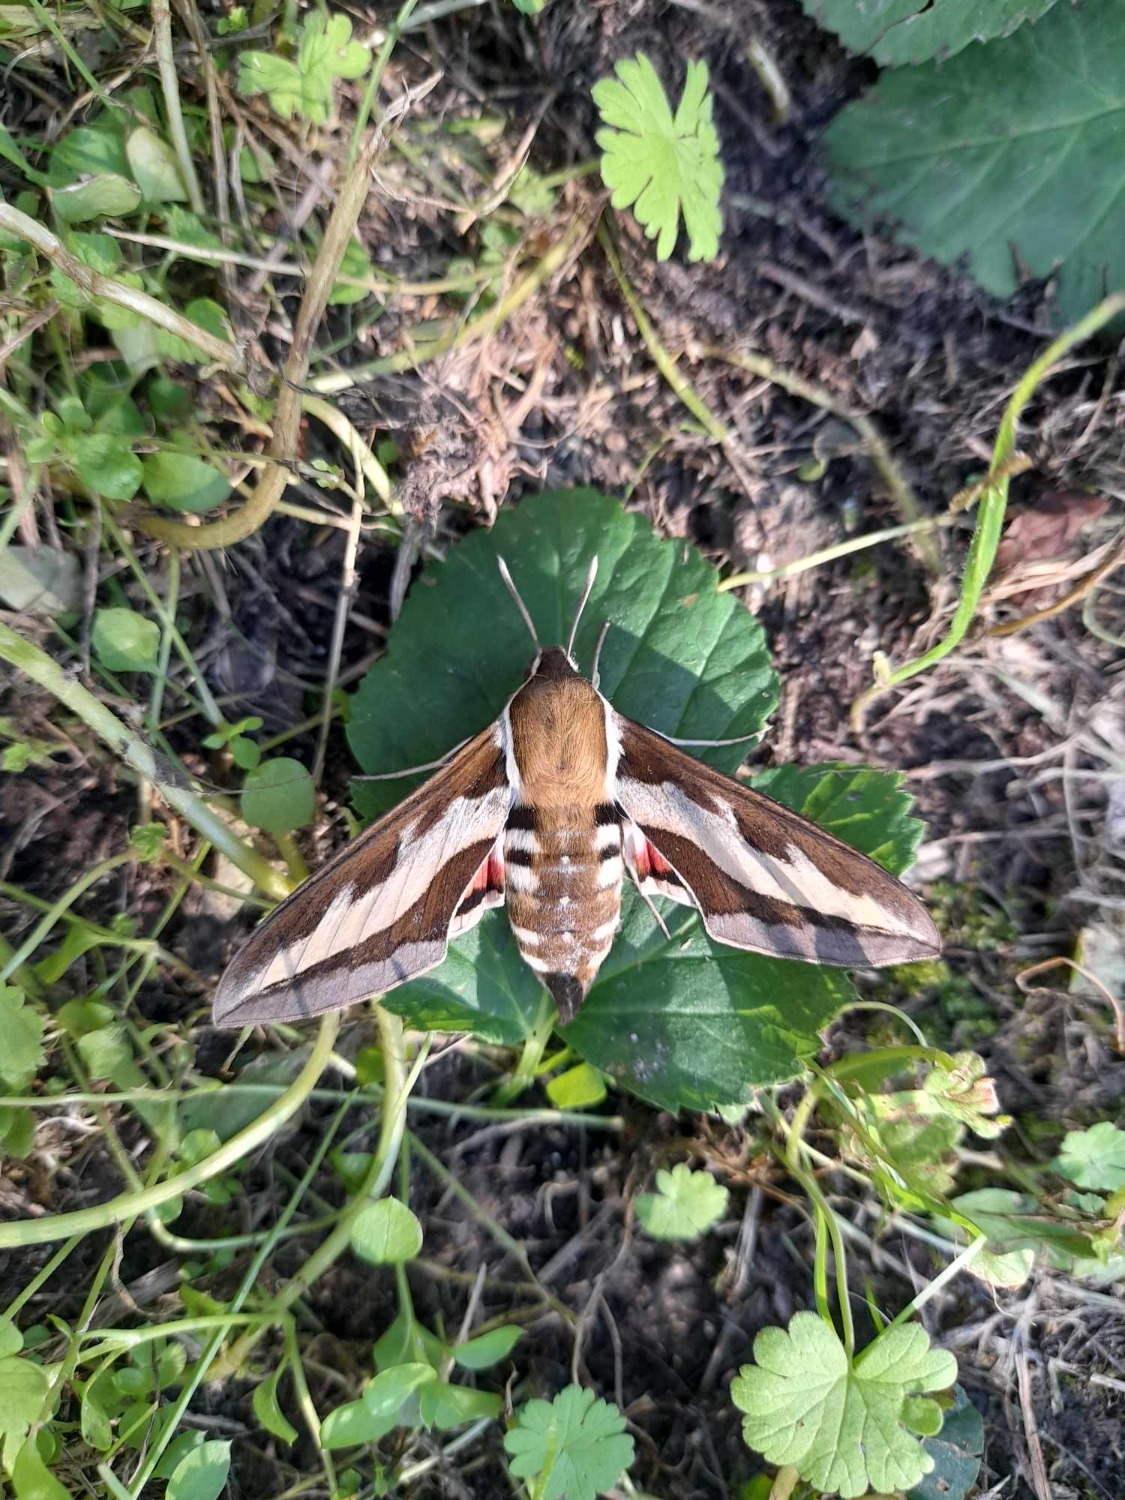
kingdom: Animalia
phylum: Arthropoda
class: Insecta
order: Lepidoptera
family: Sphingidae
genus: Hyles
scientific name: Hyles gallii
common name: Snerresværmer
